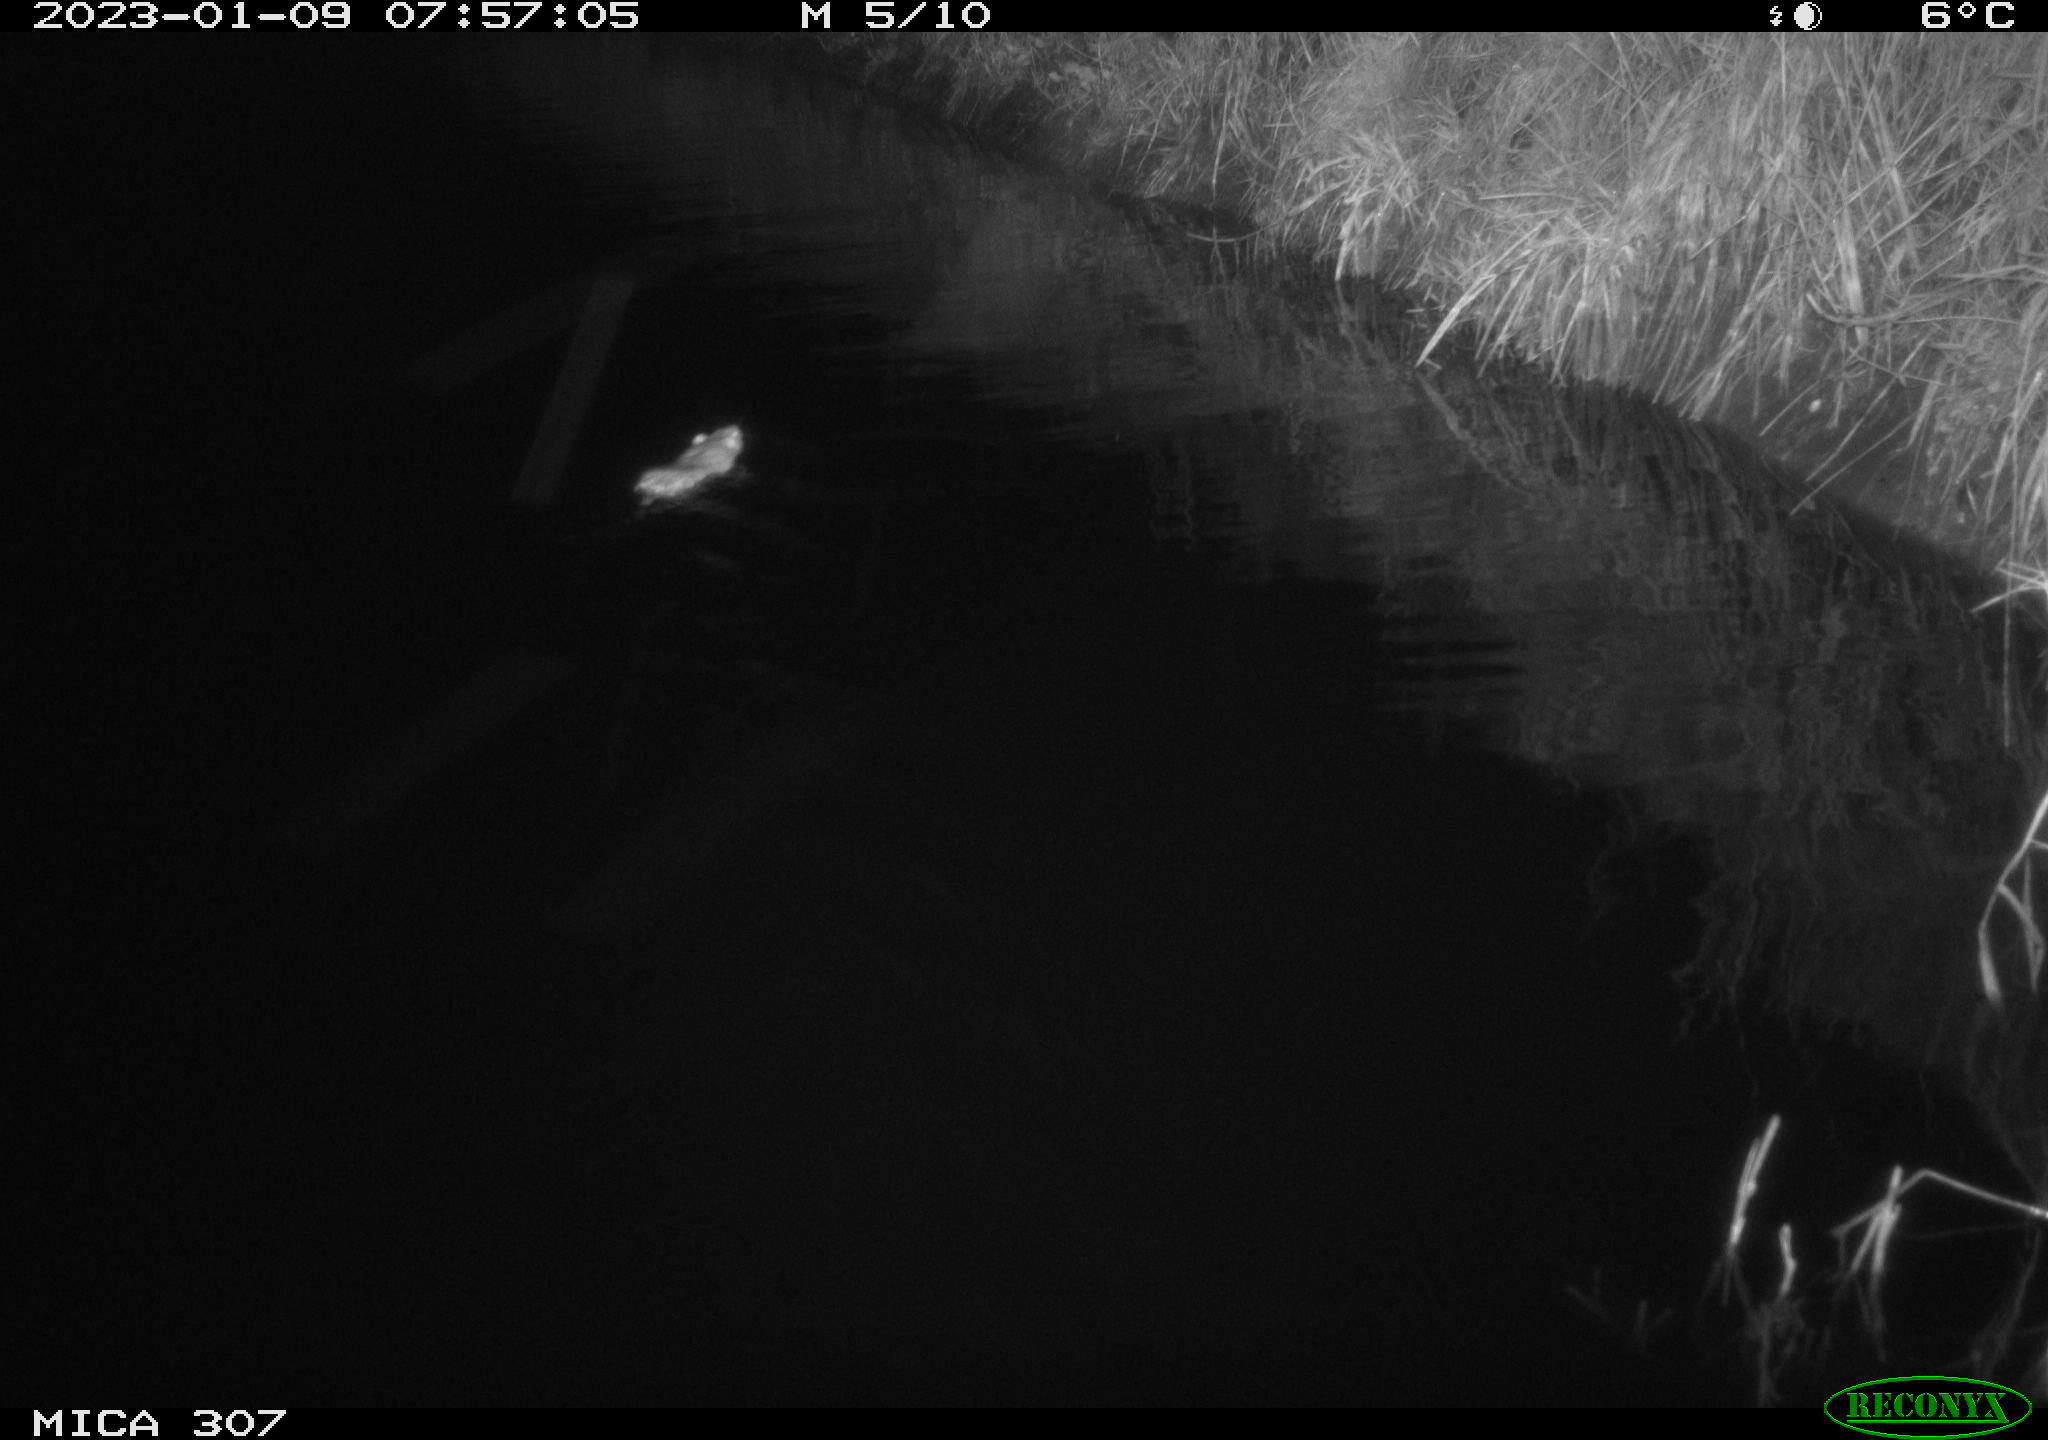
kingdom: Animalia
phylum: Chordata
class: Mammalia
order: Rodentia
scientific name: Rodentia
